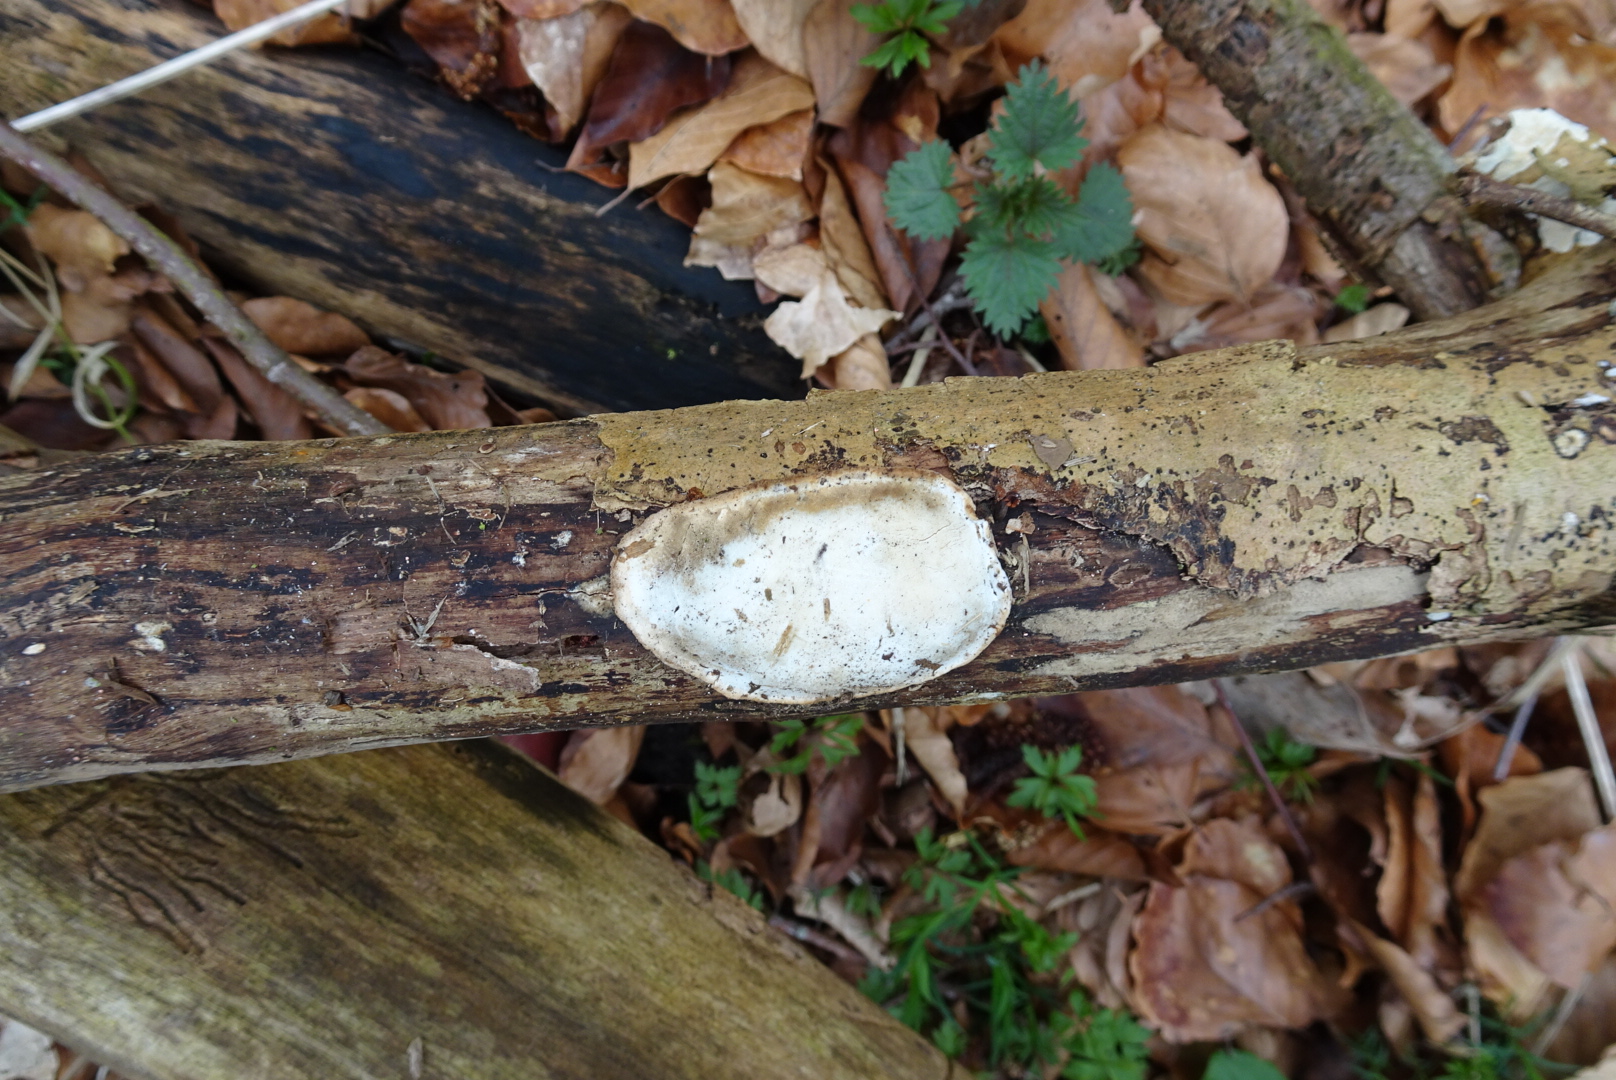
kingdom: Fungi
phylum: Basidiomycota
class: Agaricomycetes
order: Polyporales
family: Incrustoporiaceae
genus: Skeletocutis
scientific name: Skeletocutis nemoralis
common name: stor krystalporesvamp
